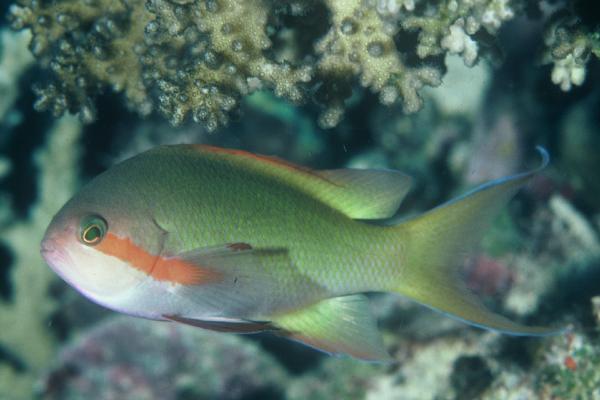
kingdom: Animalia
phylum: Chordata
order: Perciformes
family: Serranidae
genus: Pseudanthias
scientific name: Pseudanthias huchtii
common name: Pacific basslet
